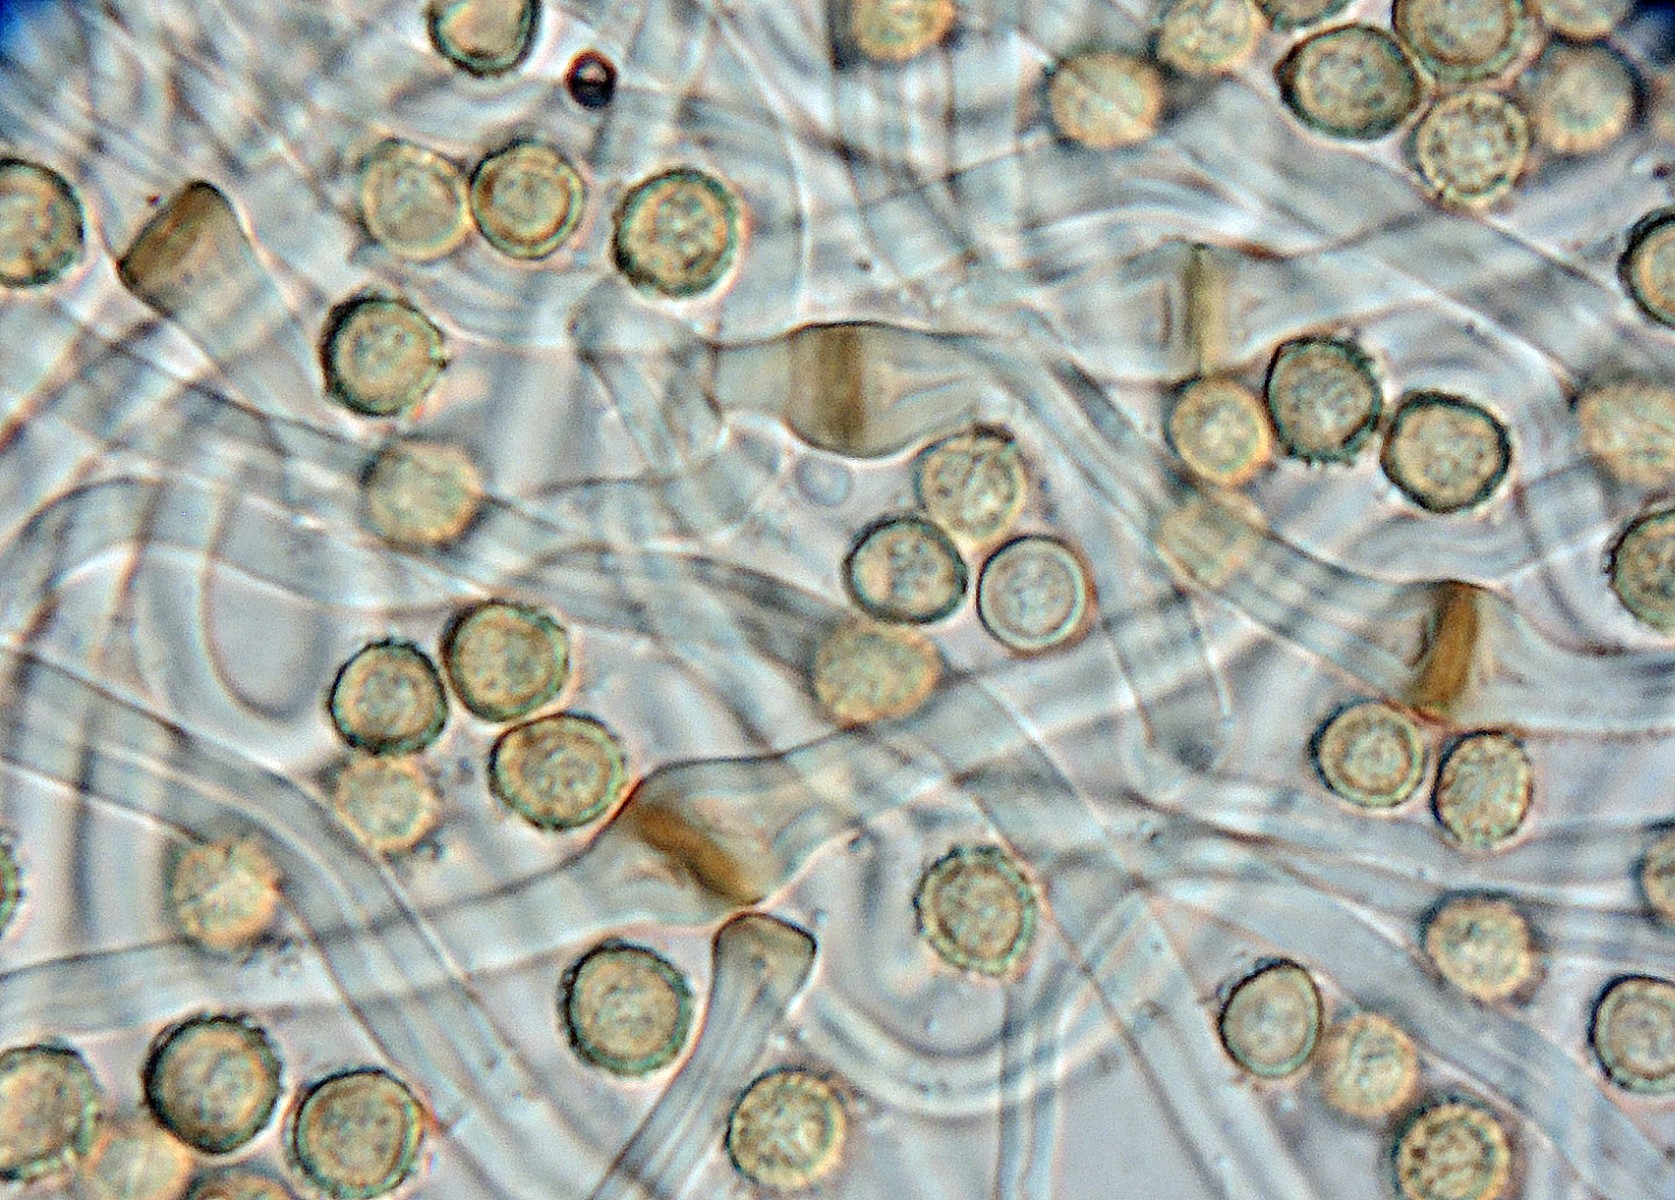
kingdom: Fungi
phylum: Basidiomycota
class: Agaricomycetes
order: Agaricales
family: Agaricaceae
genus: Tulostoma
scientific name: Tulostoma winterhoffii
